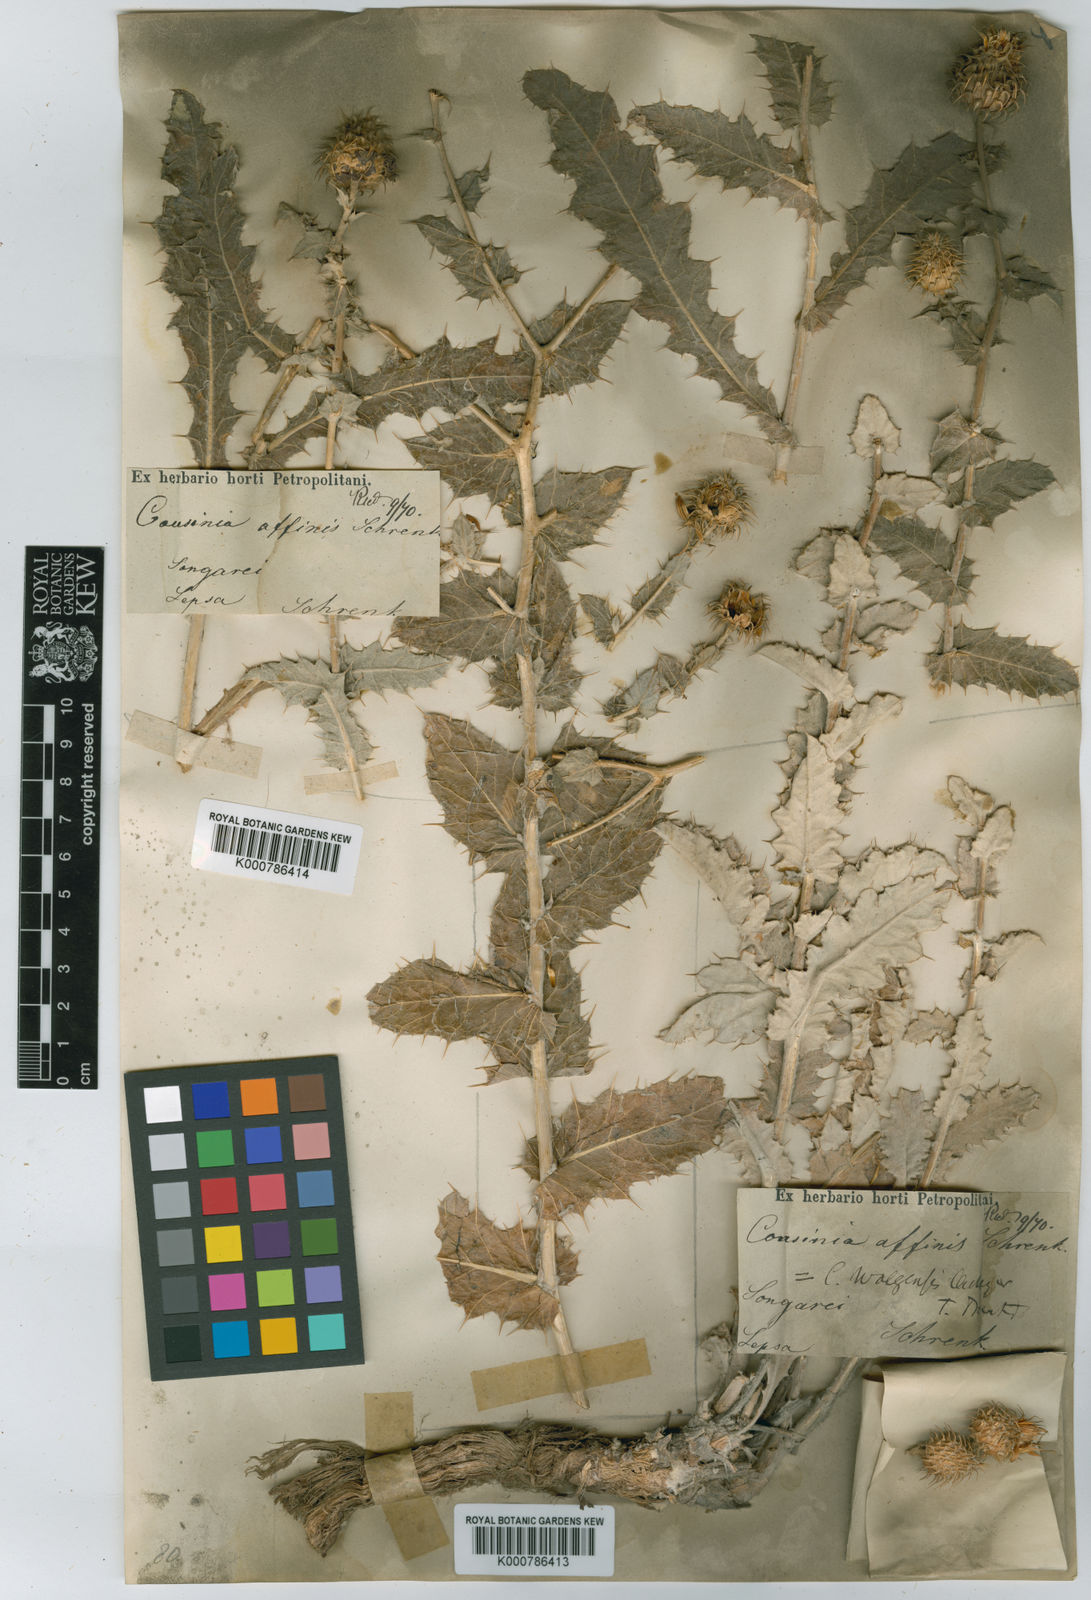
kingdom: Plantae
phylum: Tracheophyta
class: Magnoliopsida
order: Asterales
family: Asteraceae
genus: Cousinia
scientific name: Cousinia affinis
